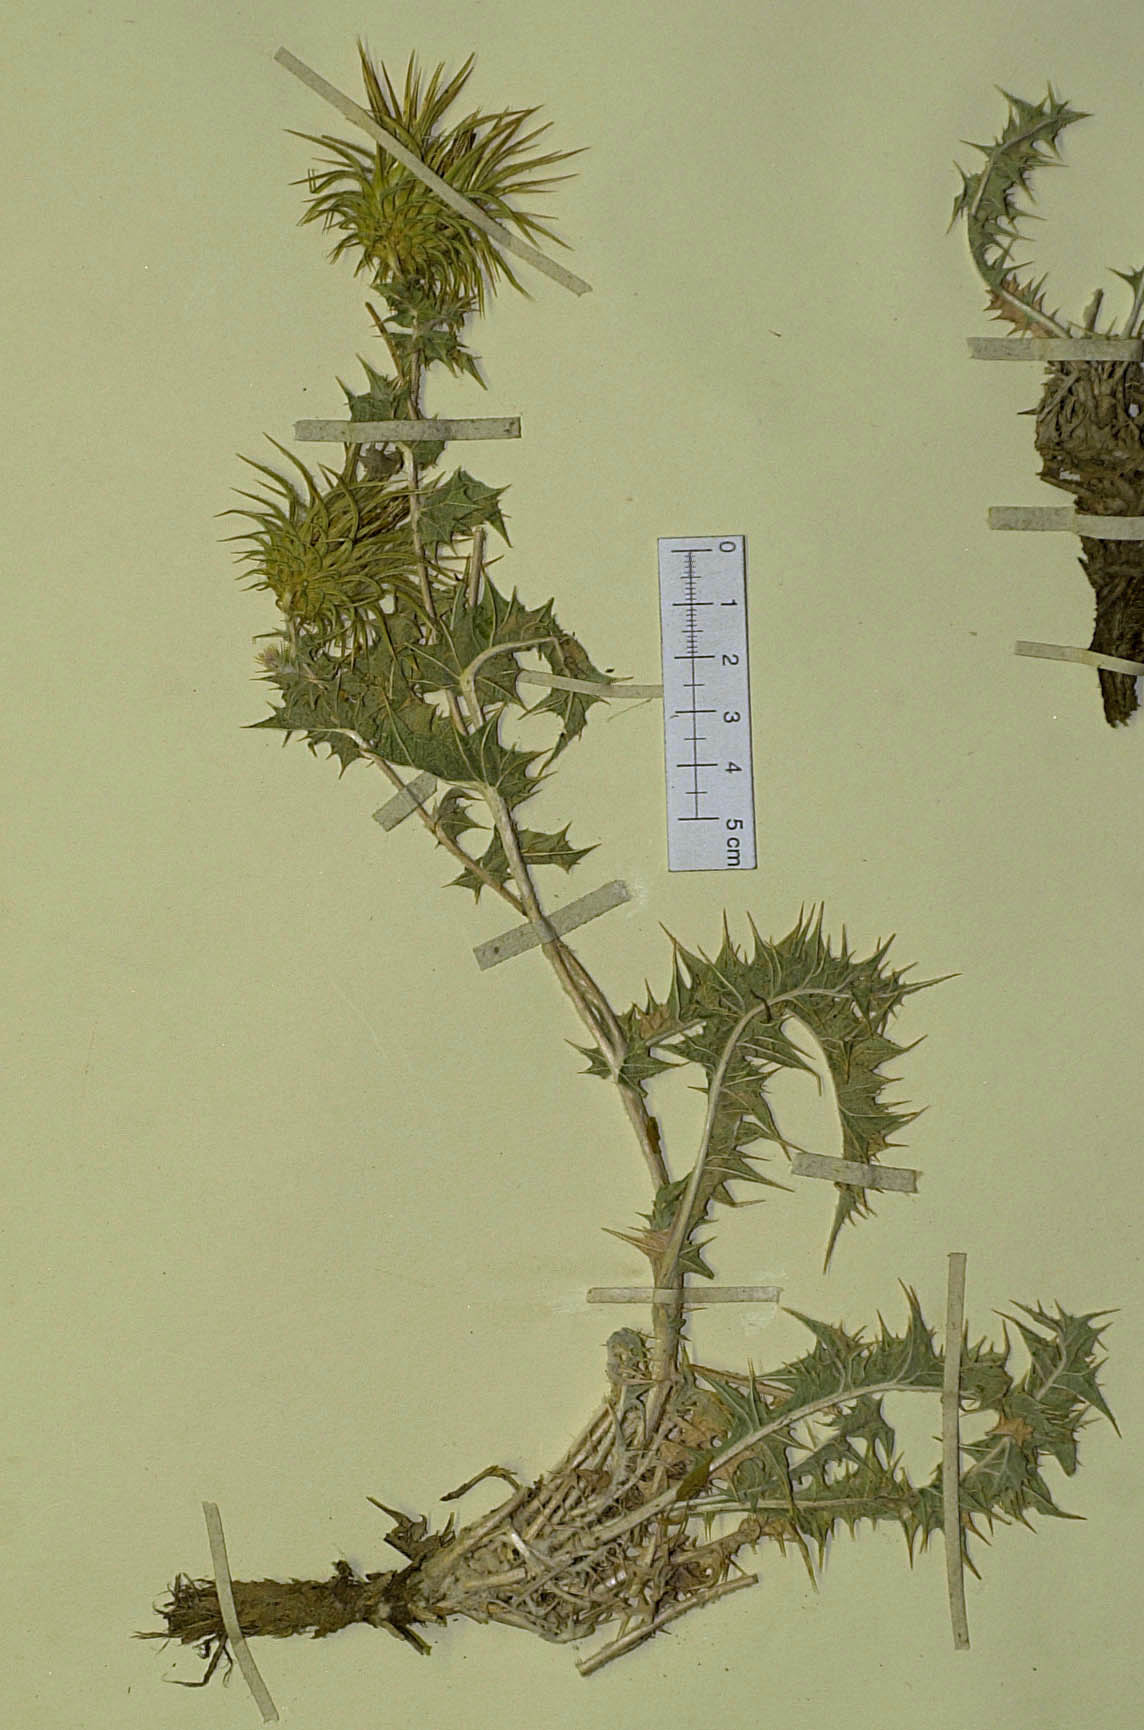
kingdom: Plantae
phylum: Tracheophyta
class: Magnoliopsida
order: Asterales
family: Asteraceae
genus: Cousinia
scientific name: Cousinia decumbens
